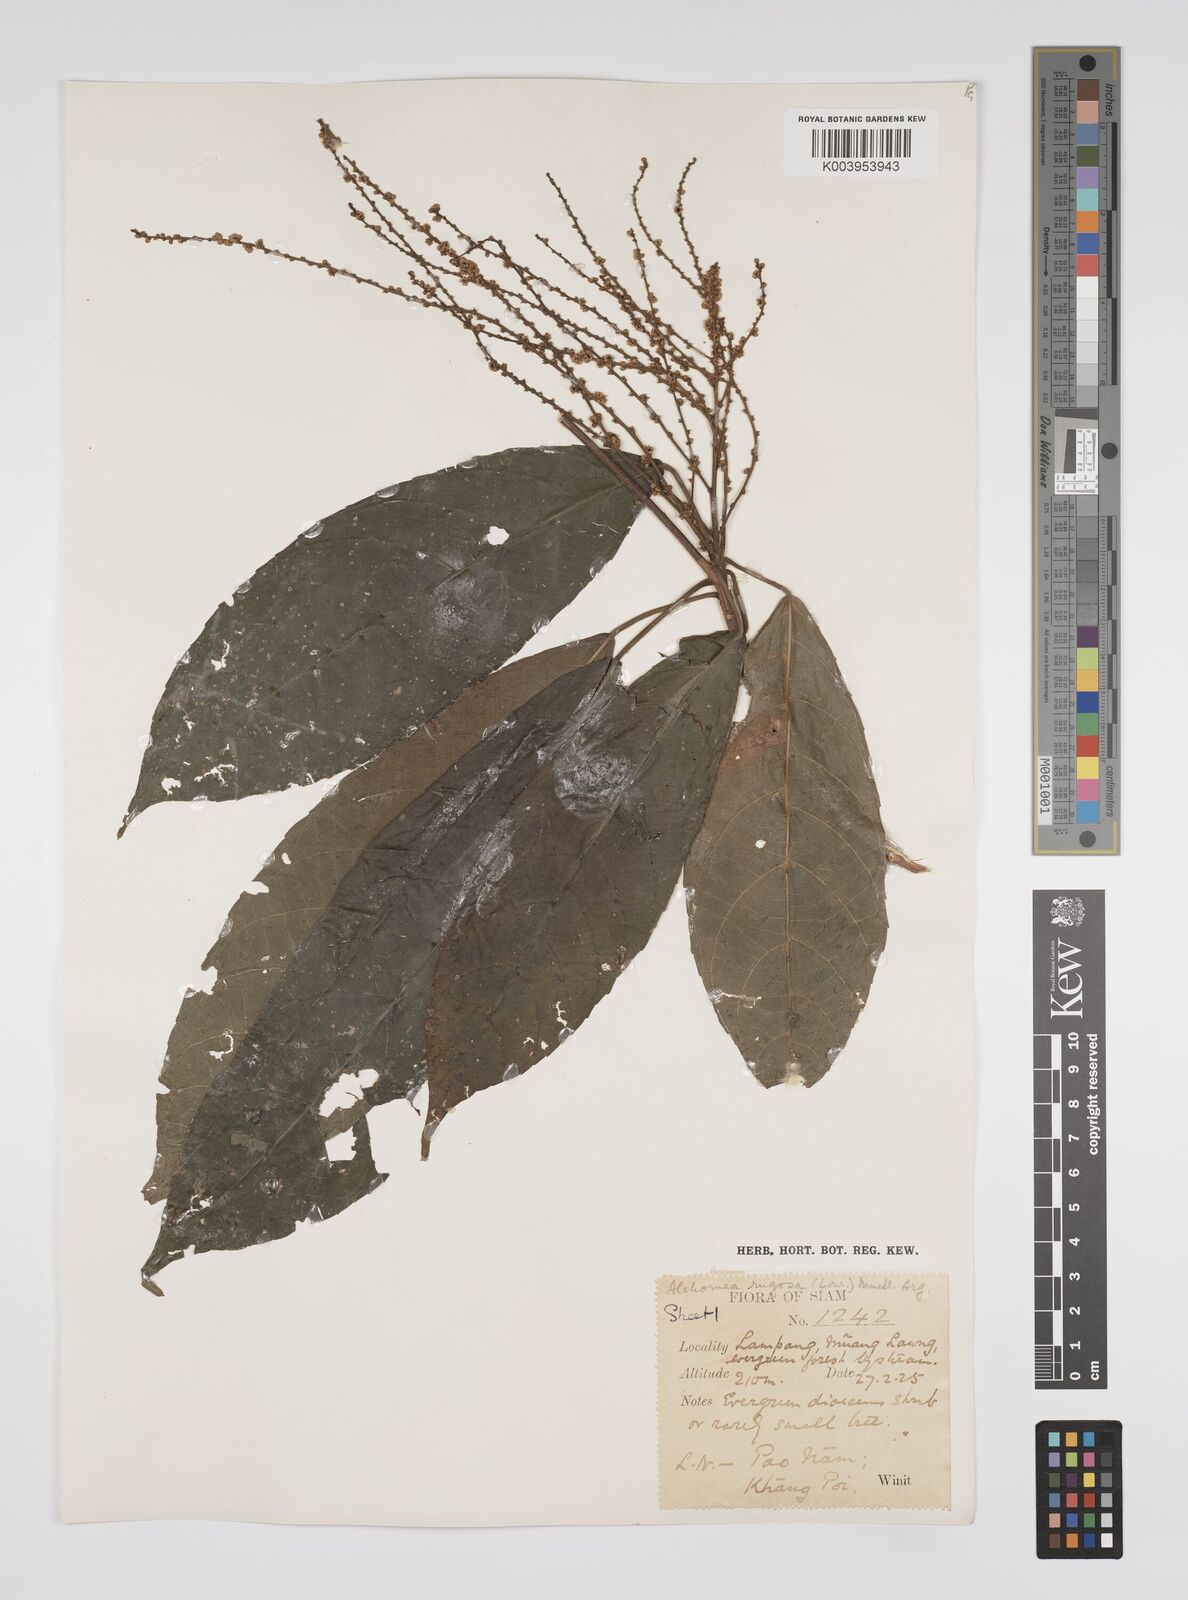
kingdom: Plantae
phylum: Tracheophyta
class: Magnoliopsida
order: Malpighiales
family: Euphorbiaceae
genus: Alchornea
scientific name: Alchornea rugosa
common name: Alchorntree
